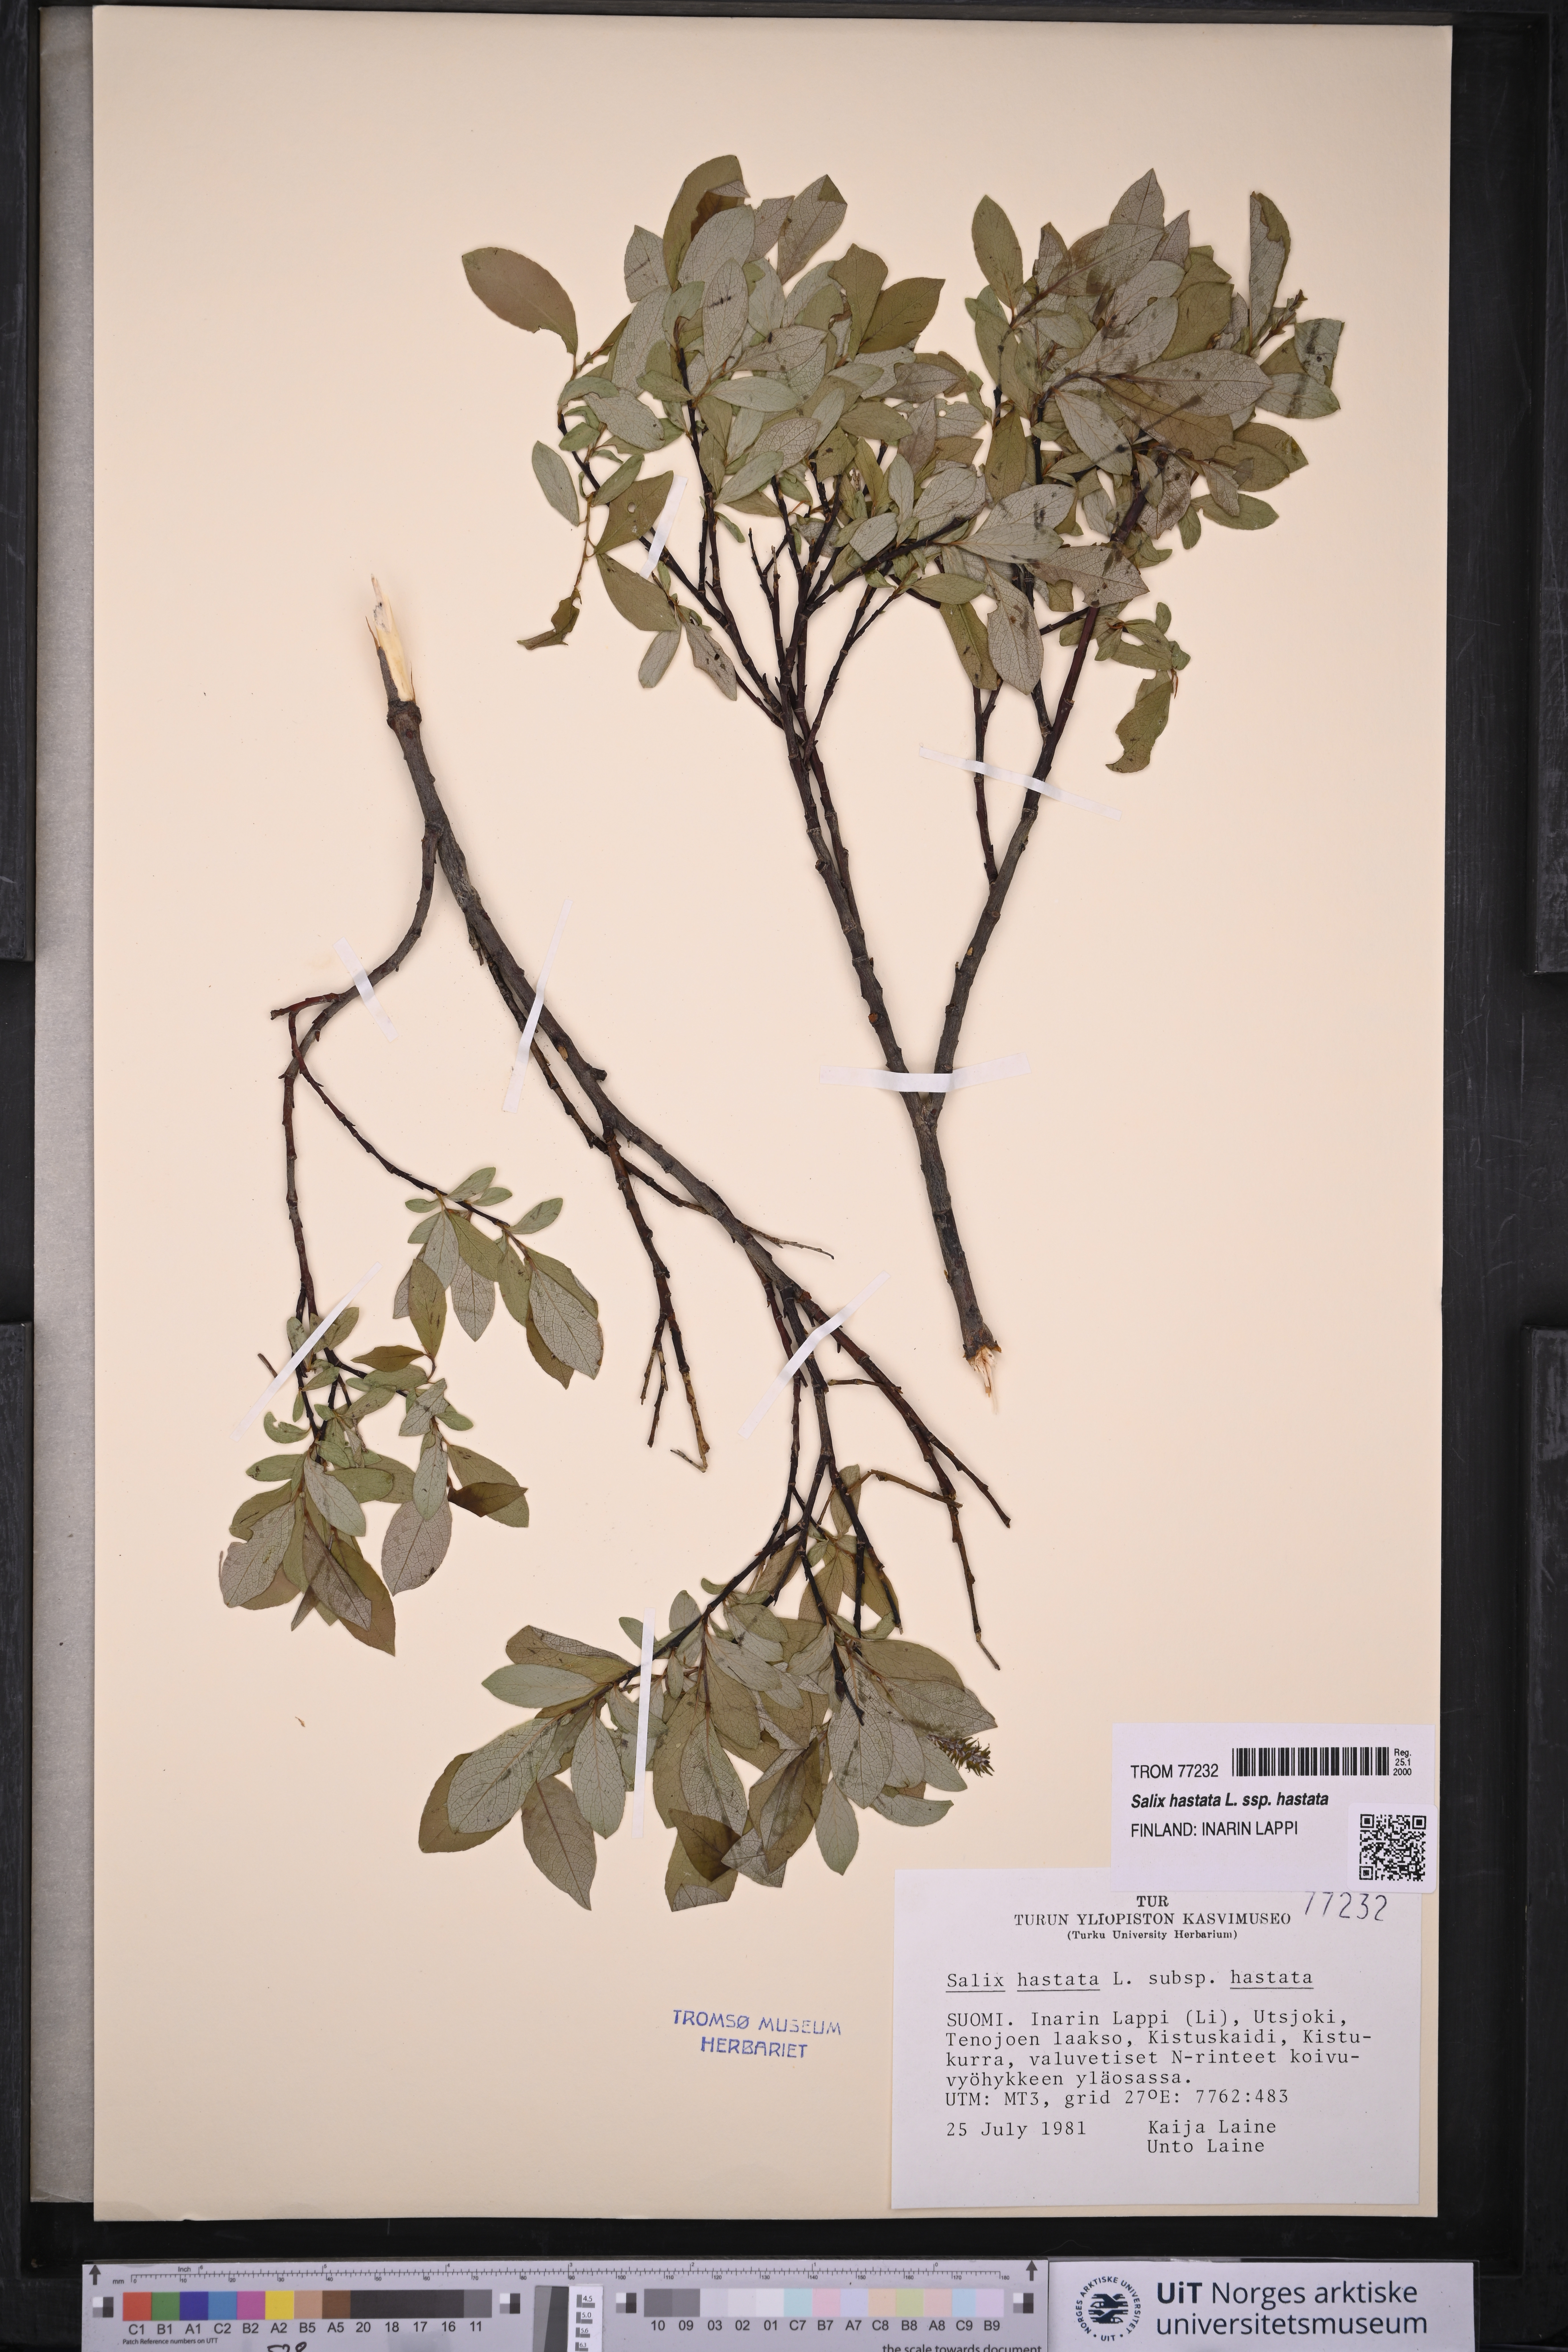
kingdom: Plantae
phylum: Tracheophyta
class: Magnoliopsida
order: Malpighiales
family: Salicaceae
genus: Salix
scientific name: Salix hastata
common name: Halberd willow
